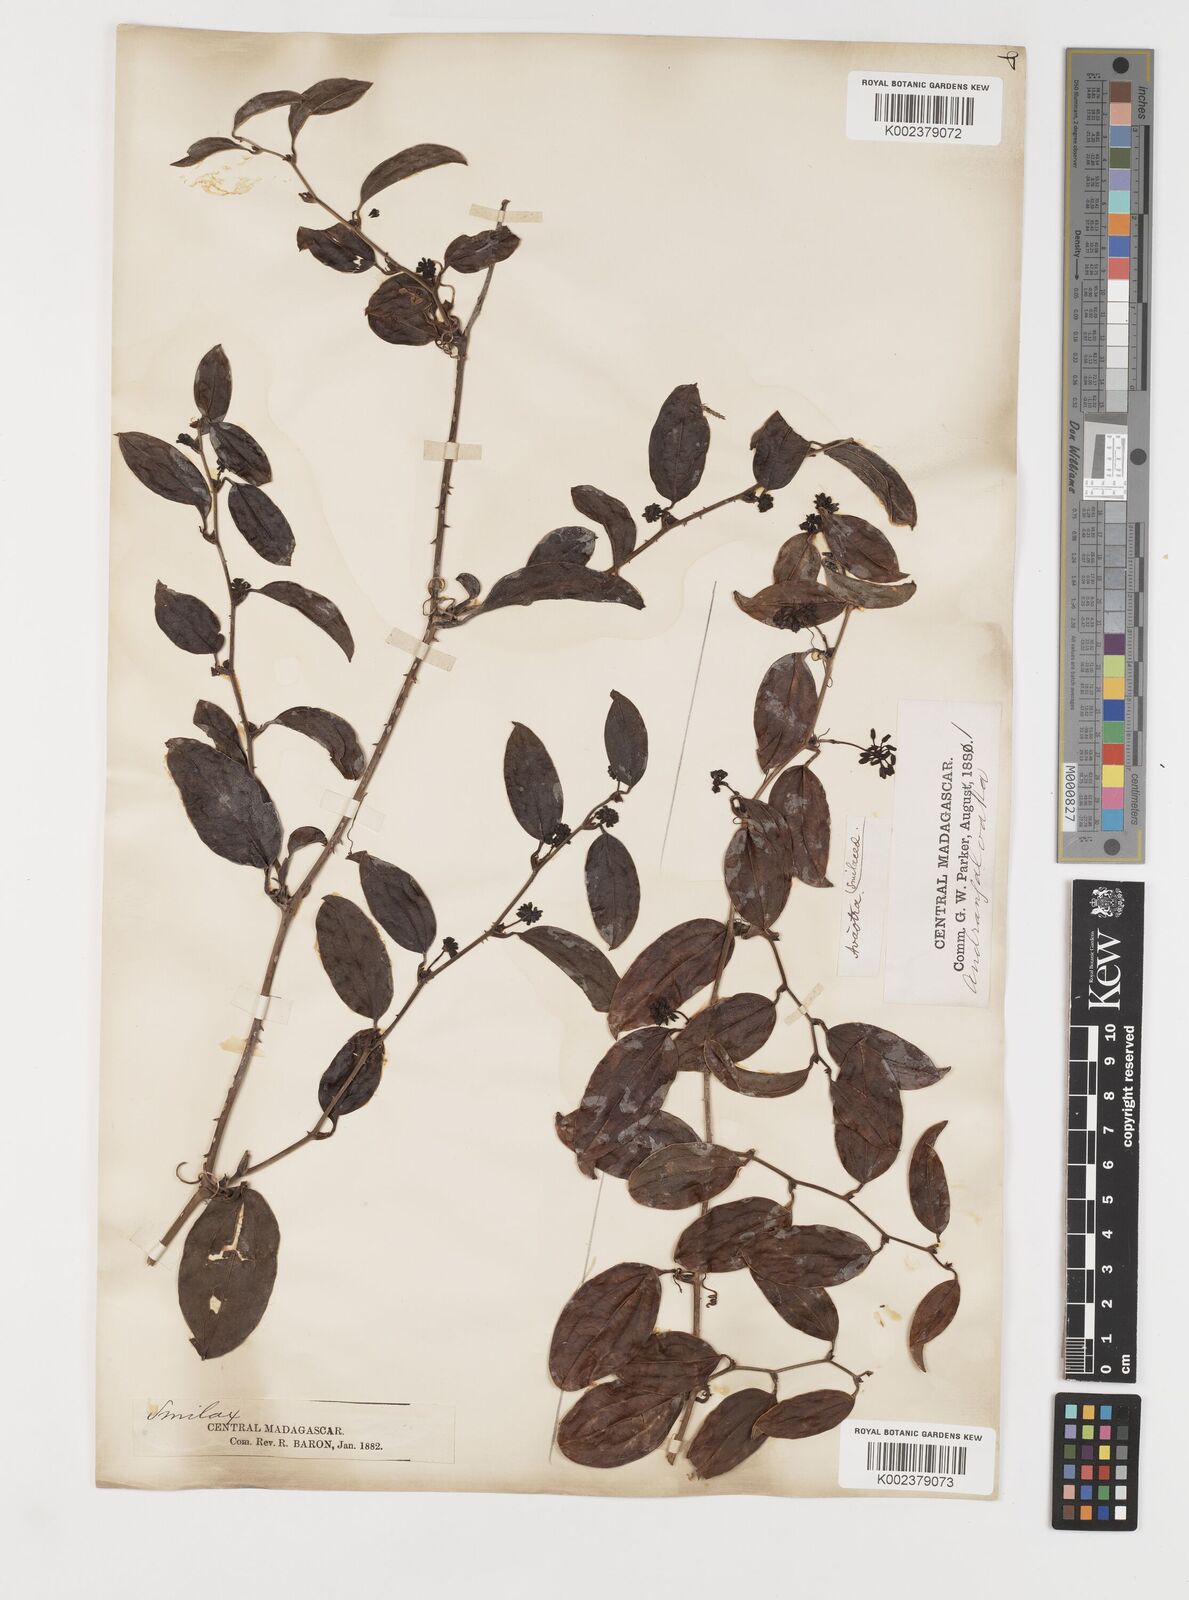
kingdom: Plantae
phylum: Tracheophyta
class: Liliopsida
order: Liliales
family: Smilacaceae
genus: Smilax
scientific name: Smilax anceps
